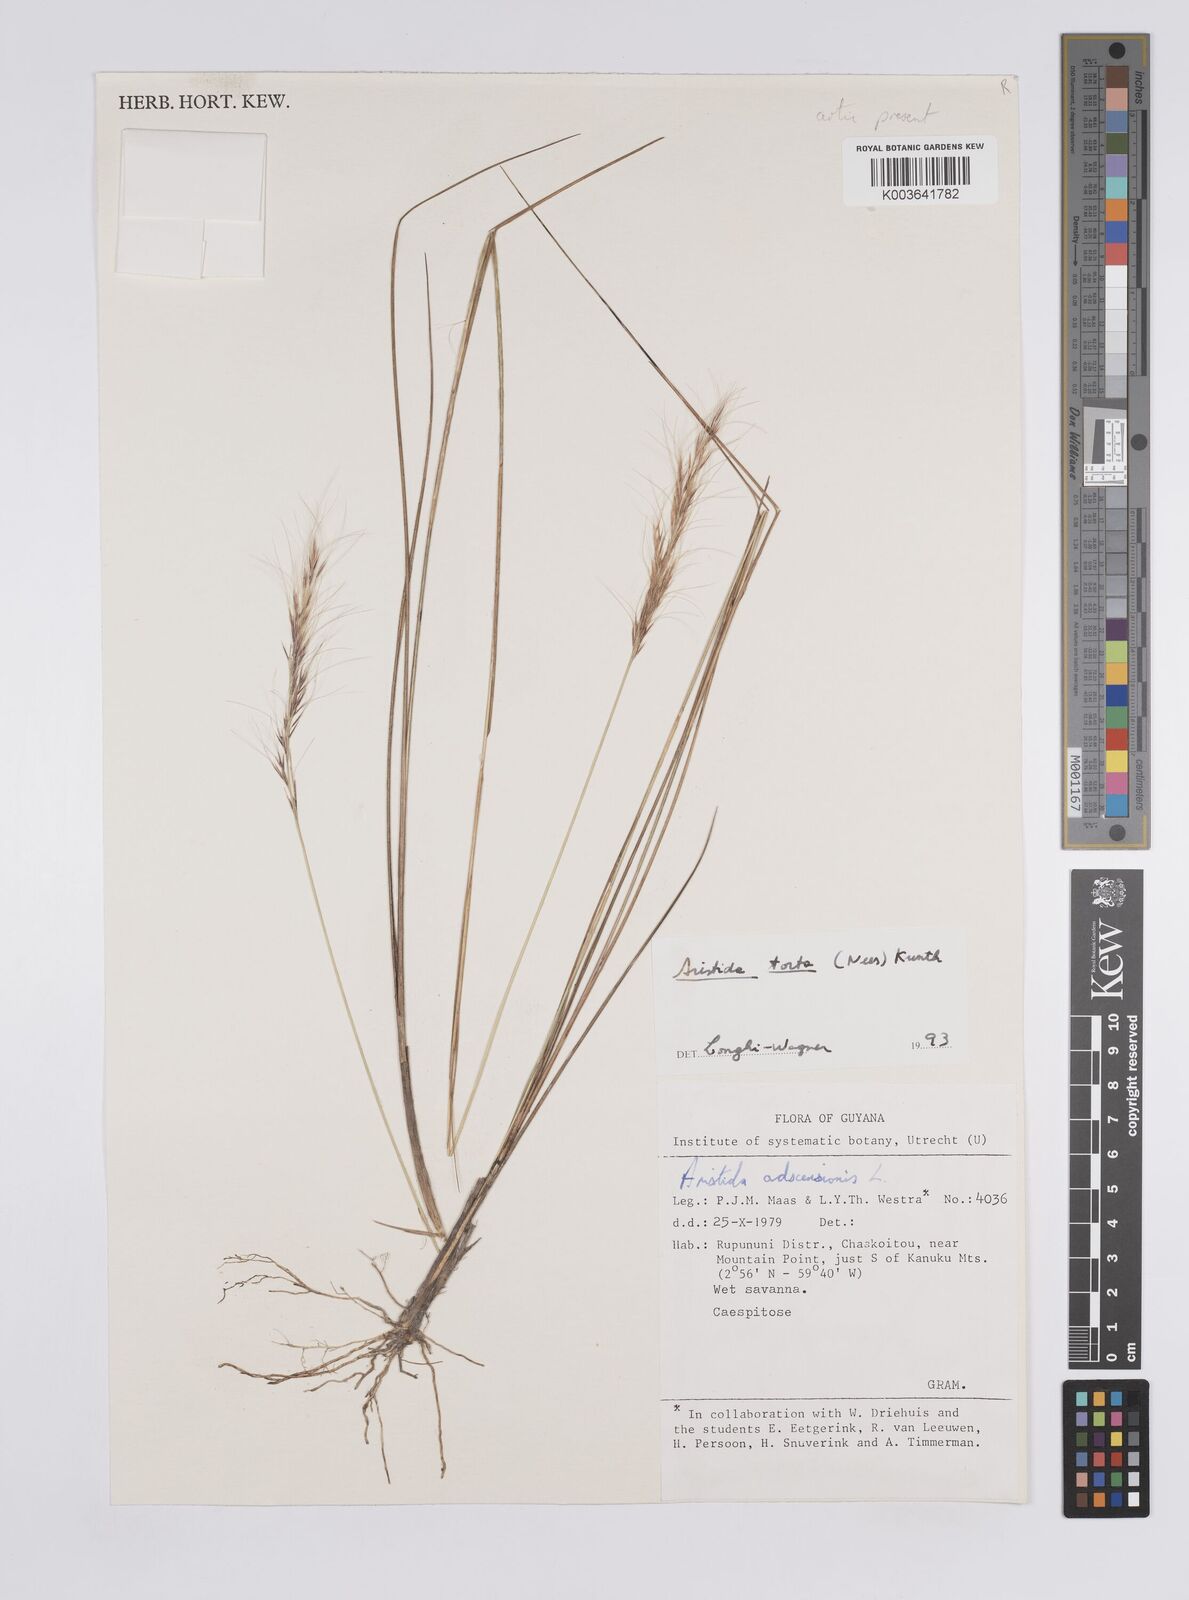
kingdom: Plantae
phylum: Tracheophyta
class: Liliopsida
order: Poales
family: Poaceae
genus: Aristida
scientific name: Aristida torta
